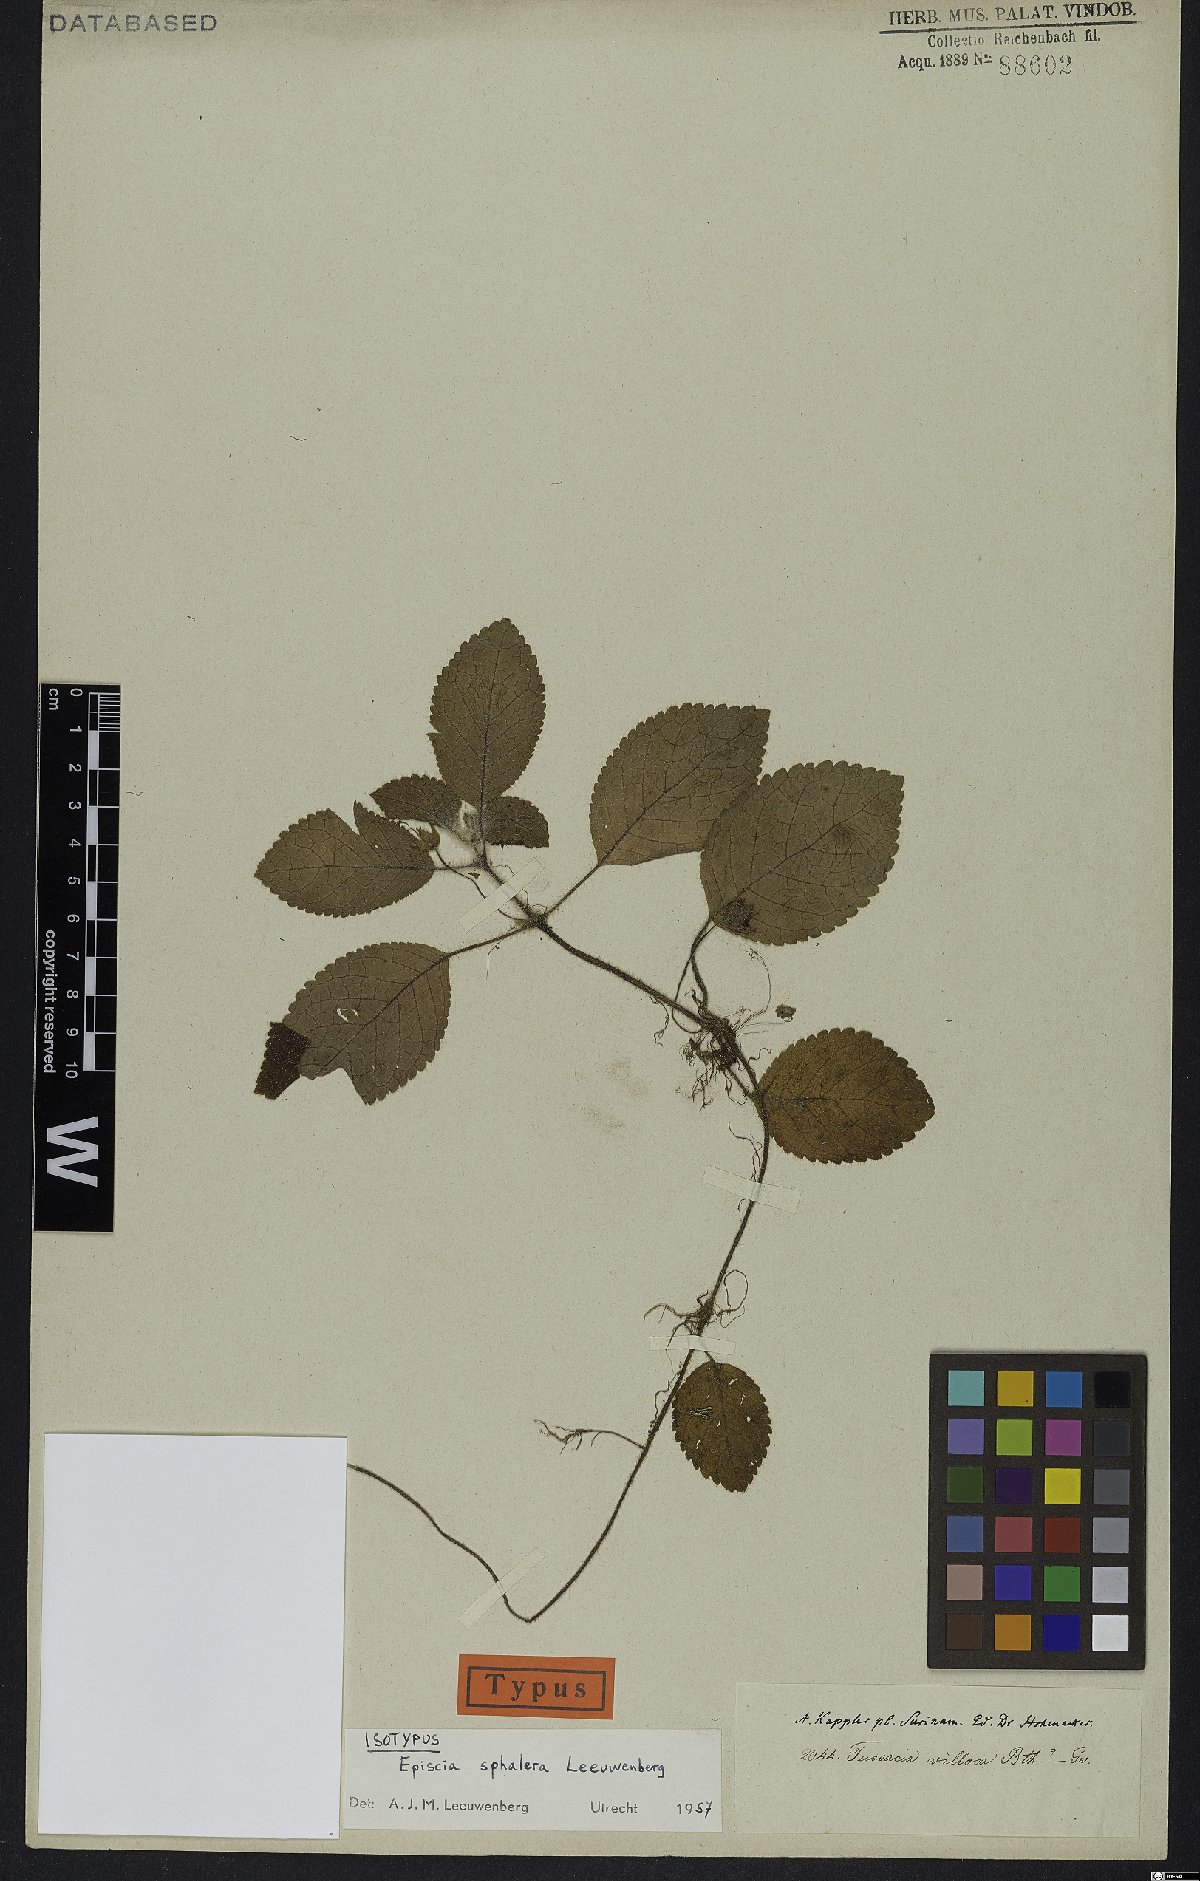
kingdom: Plantae
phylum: Tracheophyta
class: Magnoliopsida
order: Lamiales
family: Gesneriaceae
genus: Episcia
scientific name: Episcia sphalera
